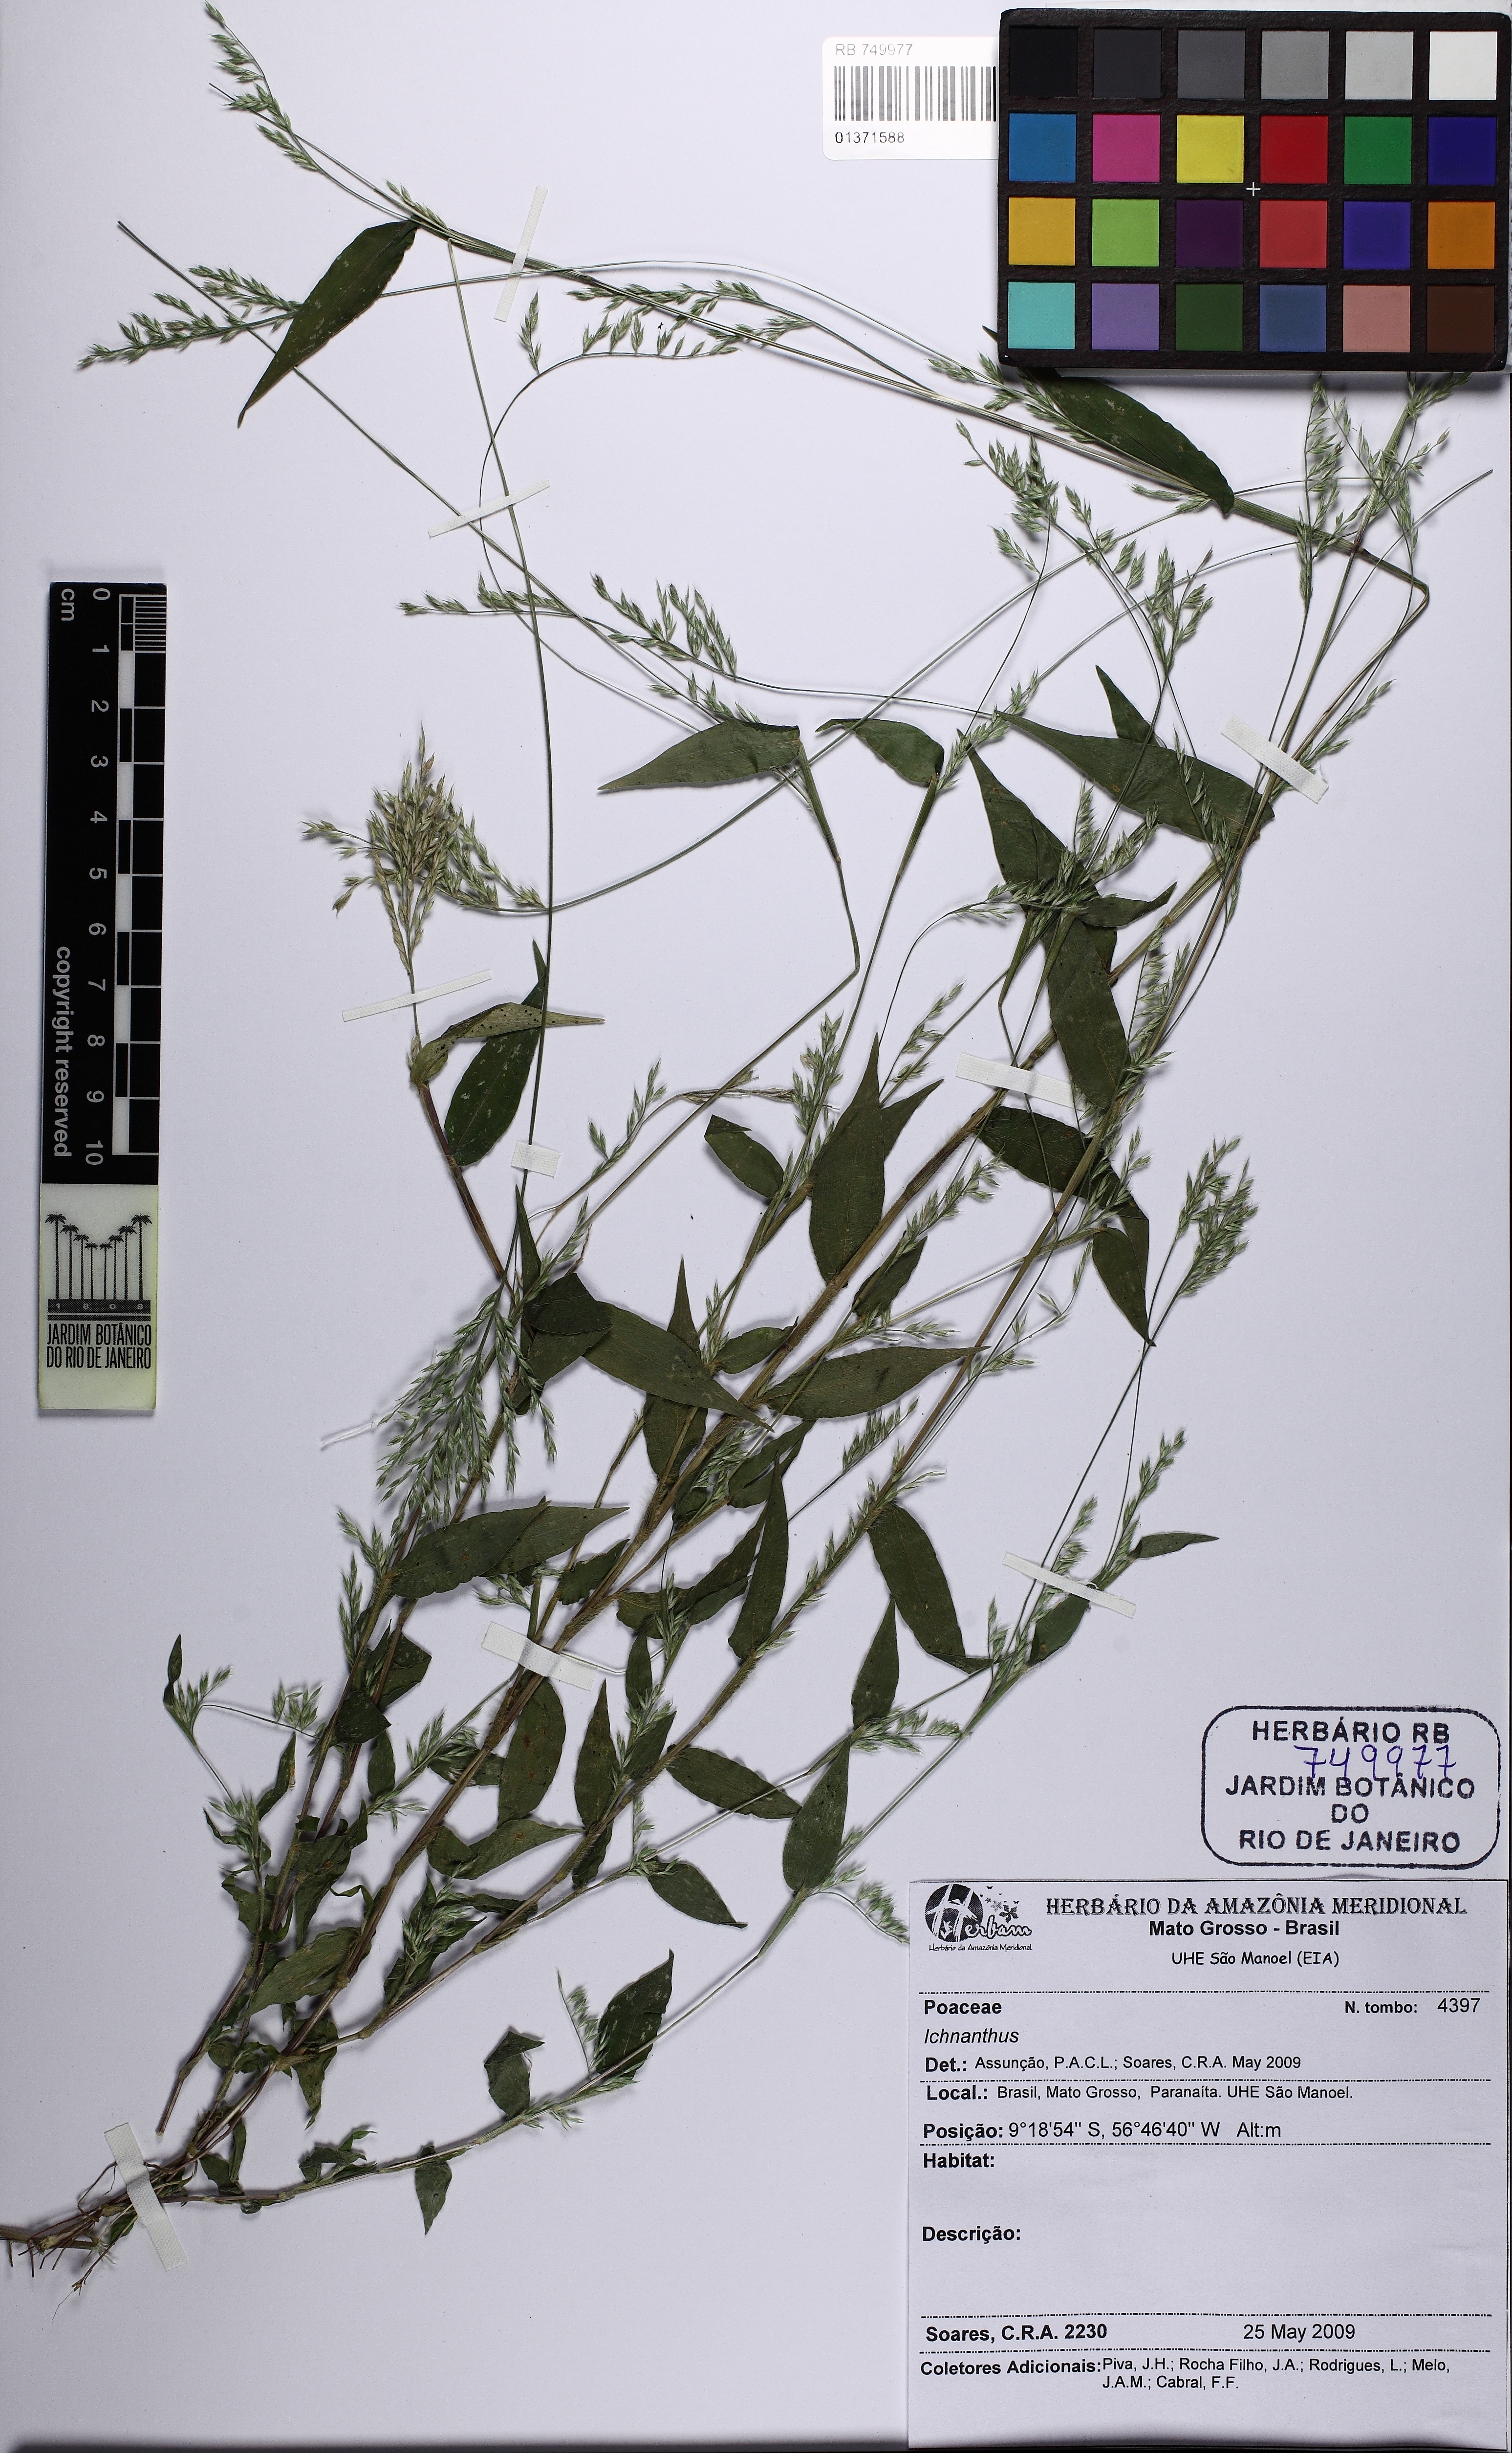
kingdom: Plantae
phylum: Tracheophyta
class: Liliopsida
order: Poales
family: Poaceae
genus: Ichnanthus
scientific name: Ichnanthus
